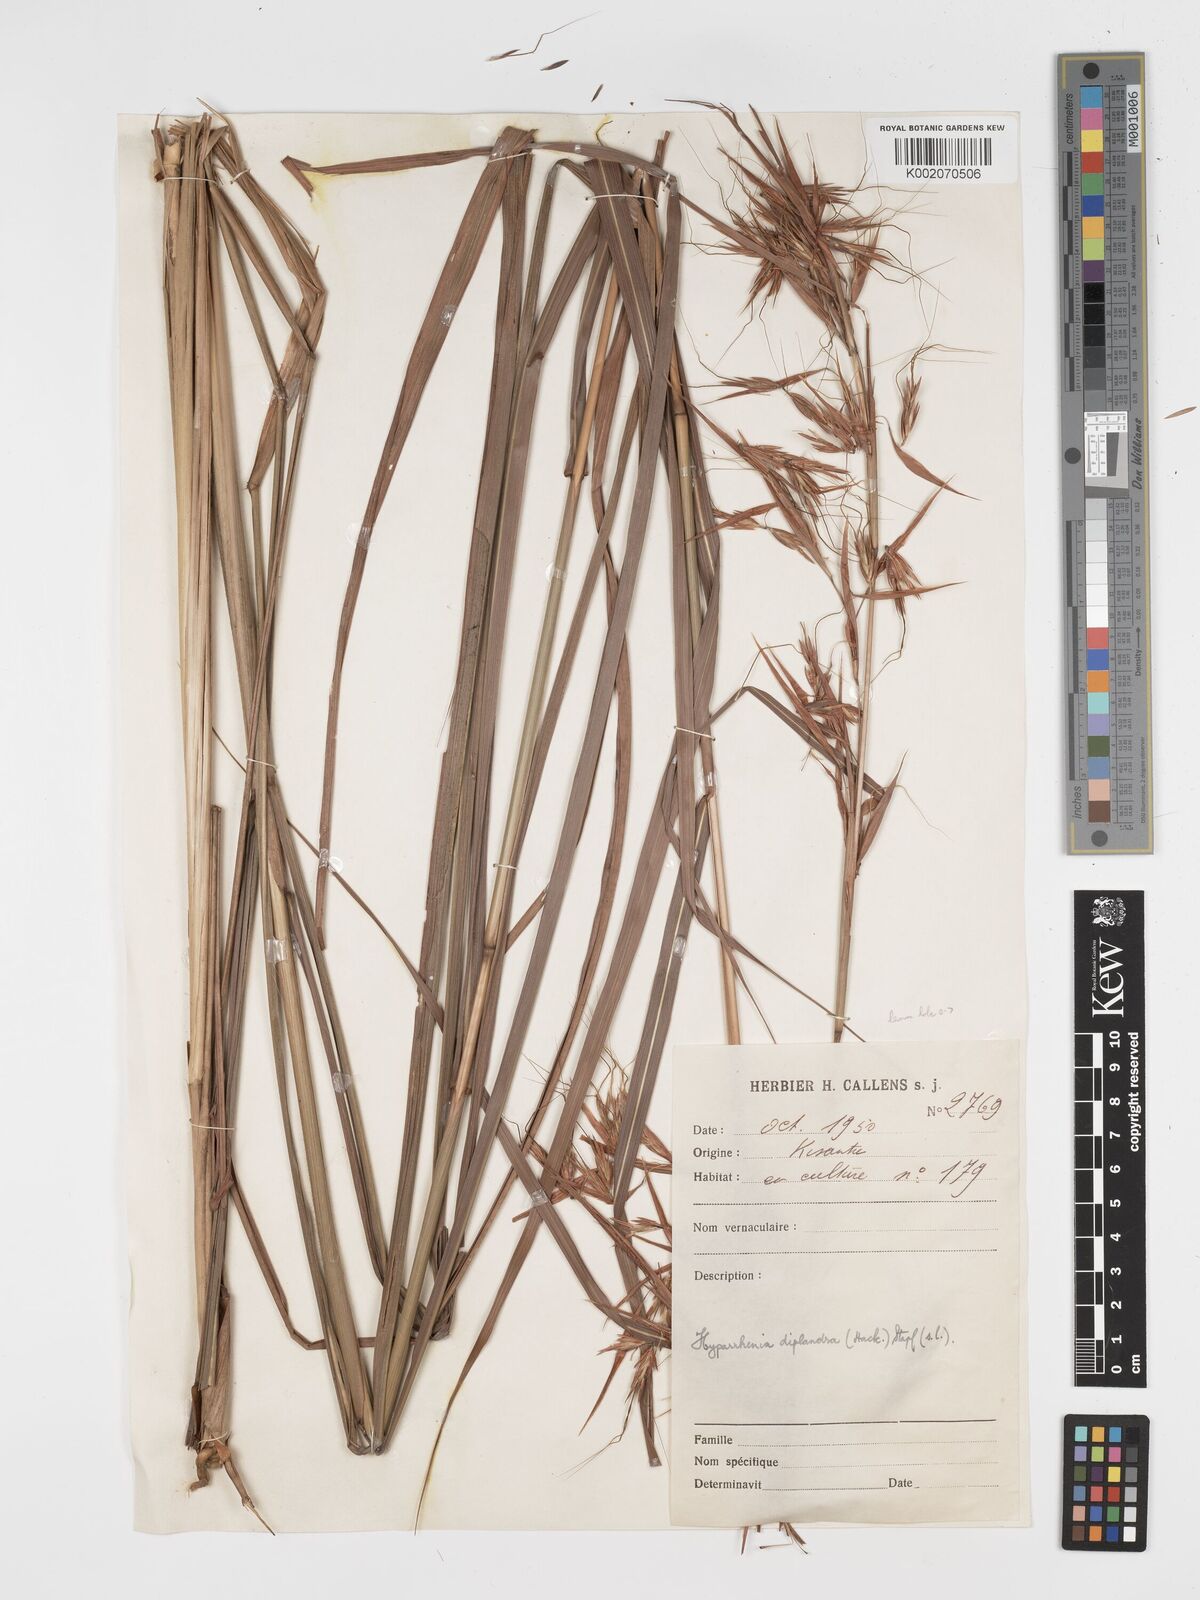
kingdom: Plantae
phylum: Tracheophyta
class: Liliopsida
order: Poales
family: Poaceae
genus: Hyparrhenia
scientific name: Hyparrhenia diplandra
